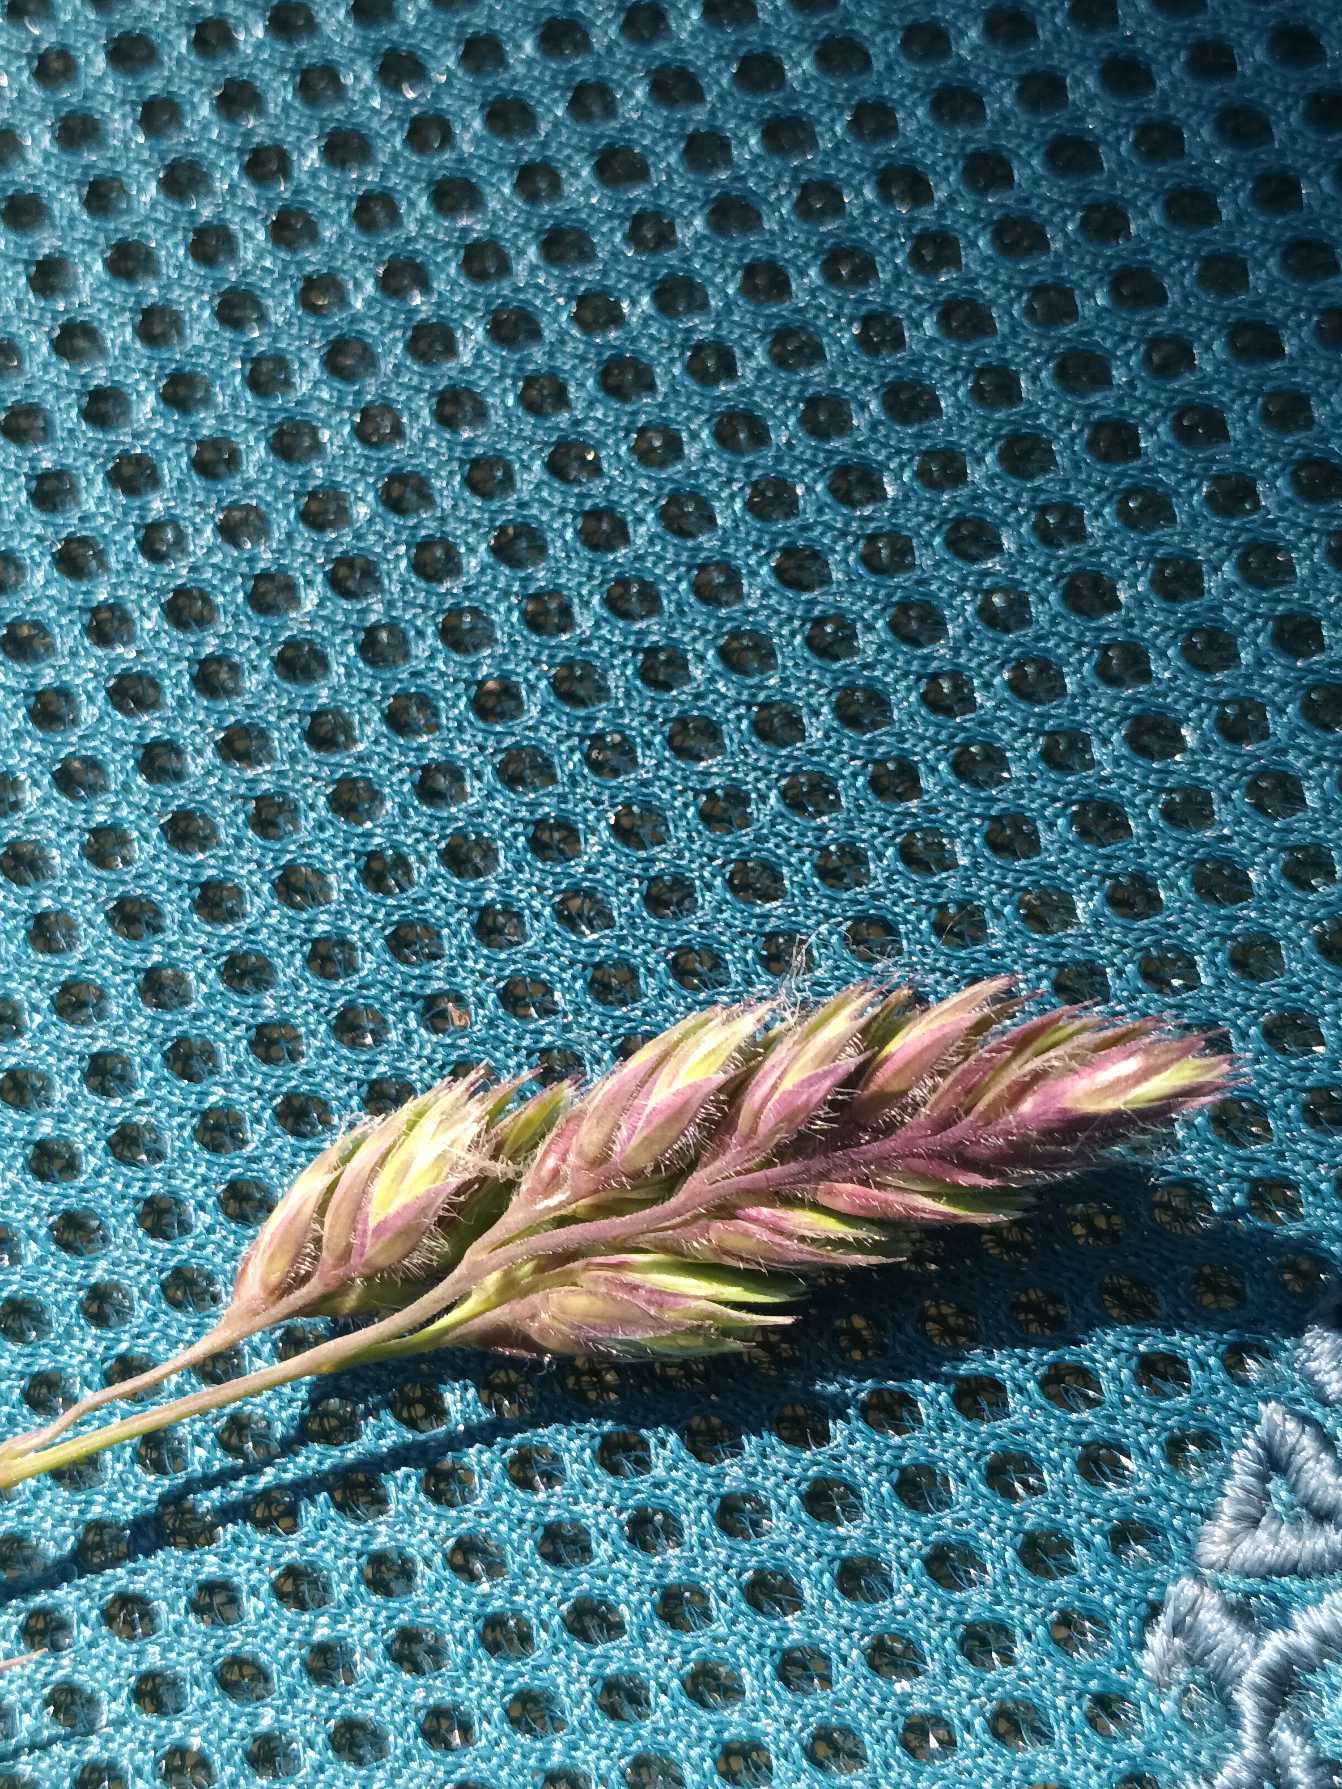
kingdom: Plantae
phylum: Tracheophyta
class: Liliopsida
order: Poales
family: Poaceae
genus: Dactylis
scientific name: Dactylis glomerata
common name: Almindelig hundegræs
